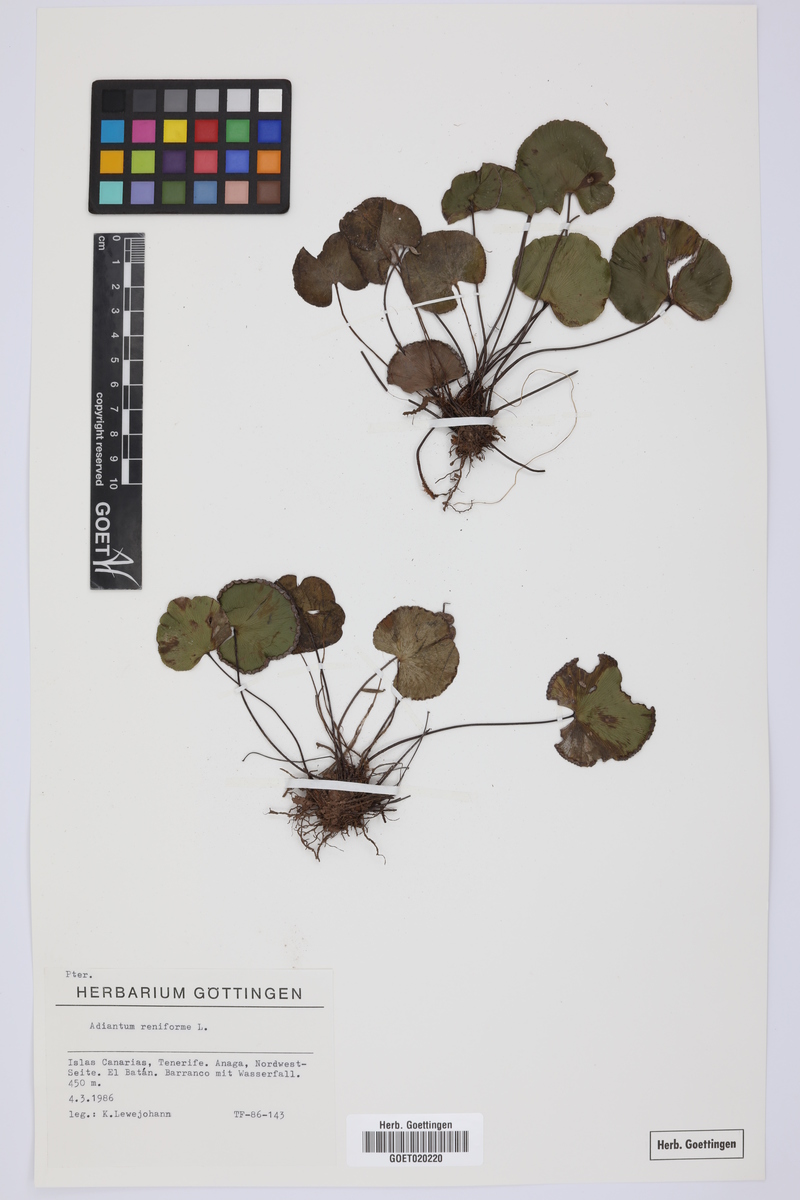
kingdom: Plantae
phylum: Tracheophyta
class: Polypodiopsida
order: Polypodiales
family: Pteridaceae
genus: Adiantum
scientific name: Adiantum reniforme
